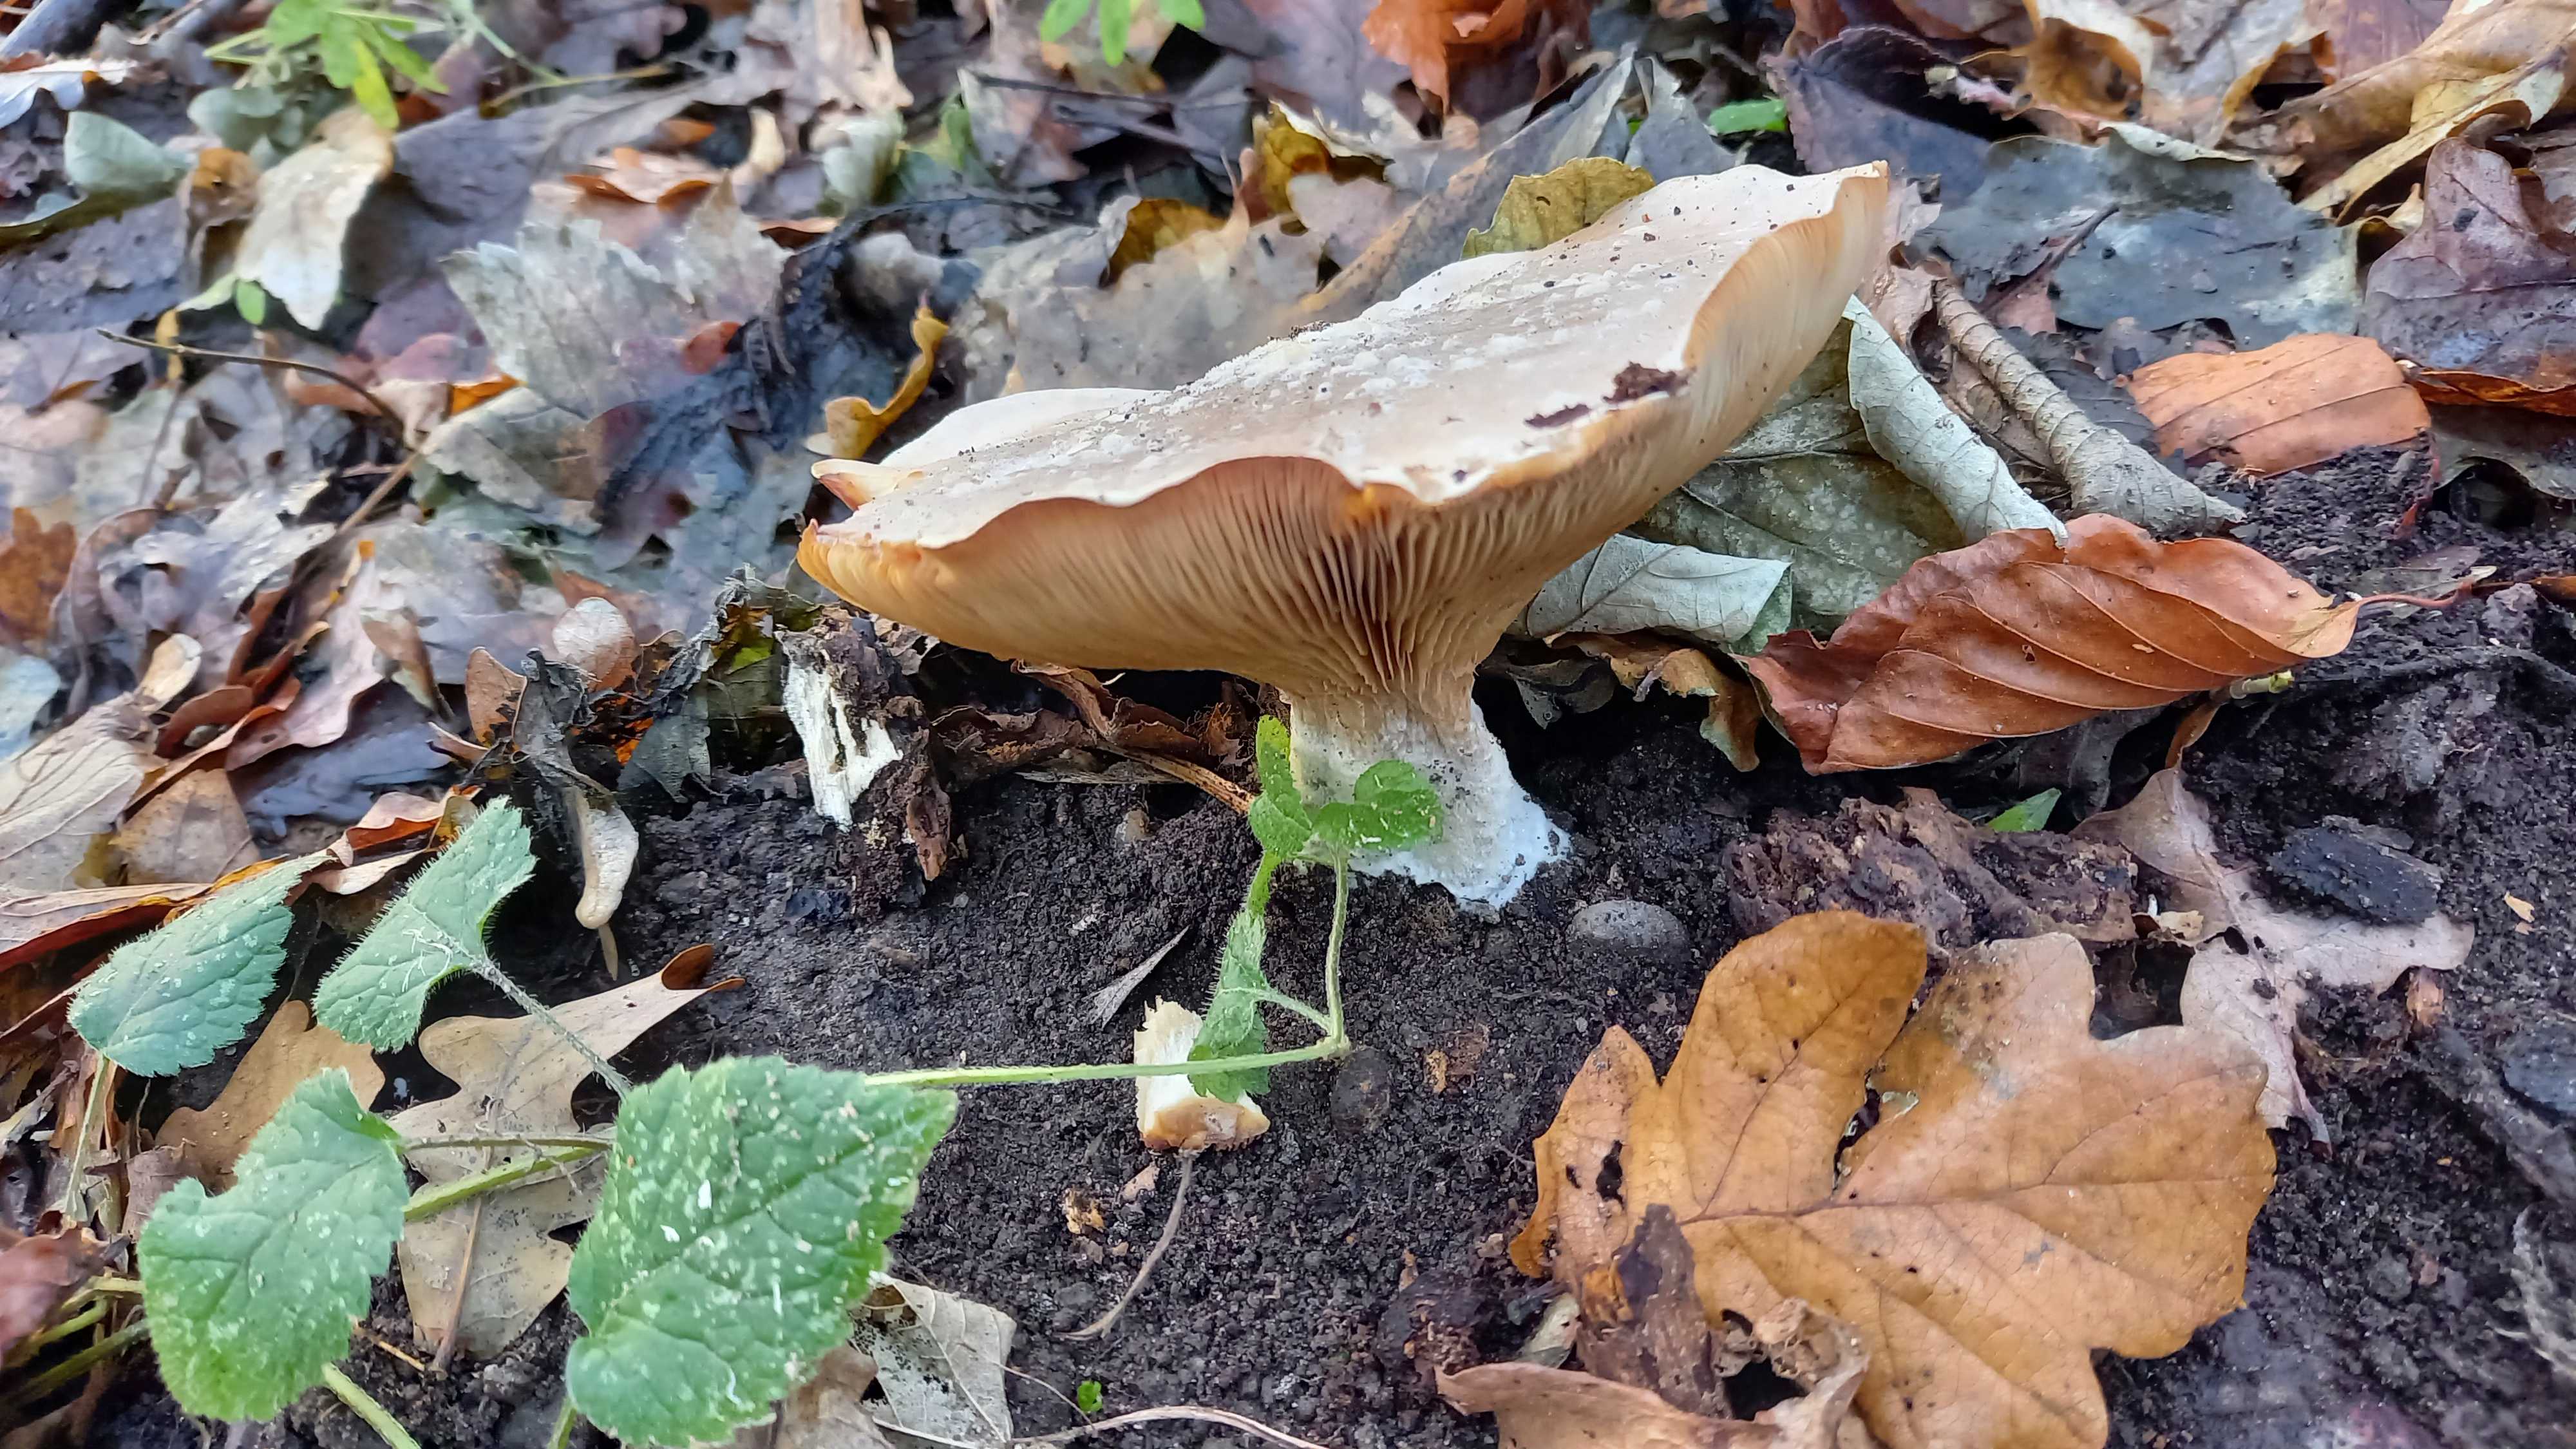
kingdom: Fungi
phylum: Basidiomycota
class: Agaricomycetes
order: Agaricales
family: Tricholomataceae
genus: Clitocybe
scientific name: Clitocybe nebularis
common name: tåge-tragthat
